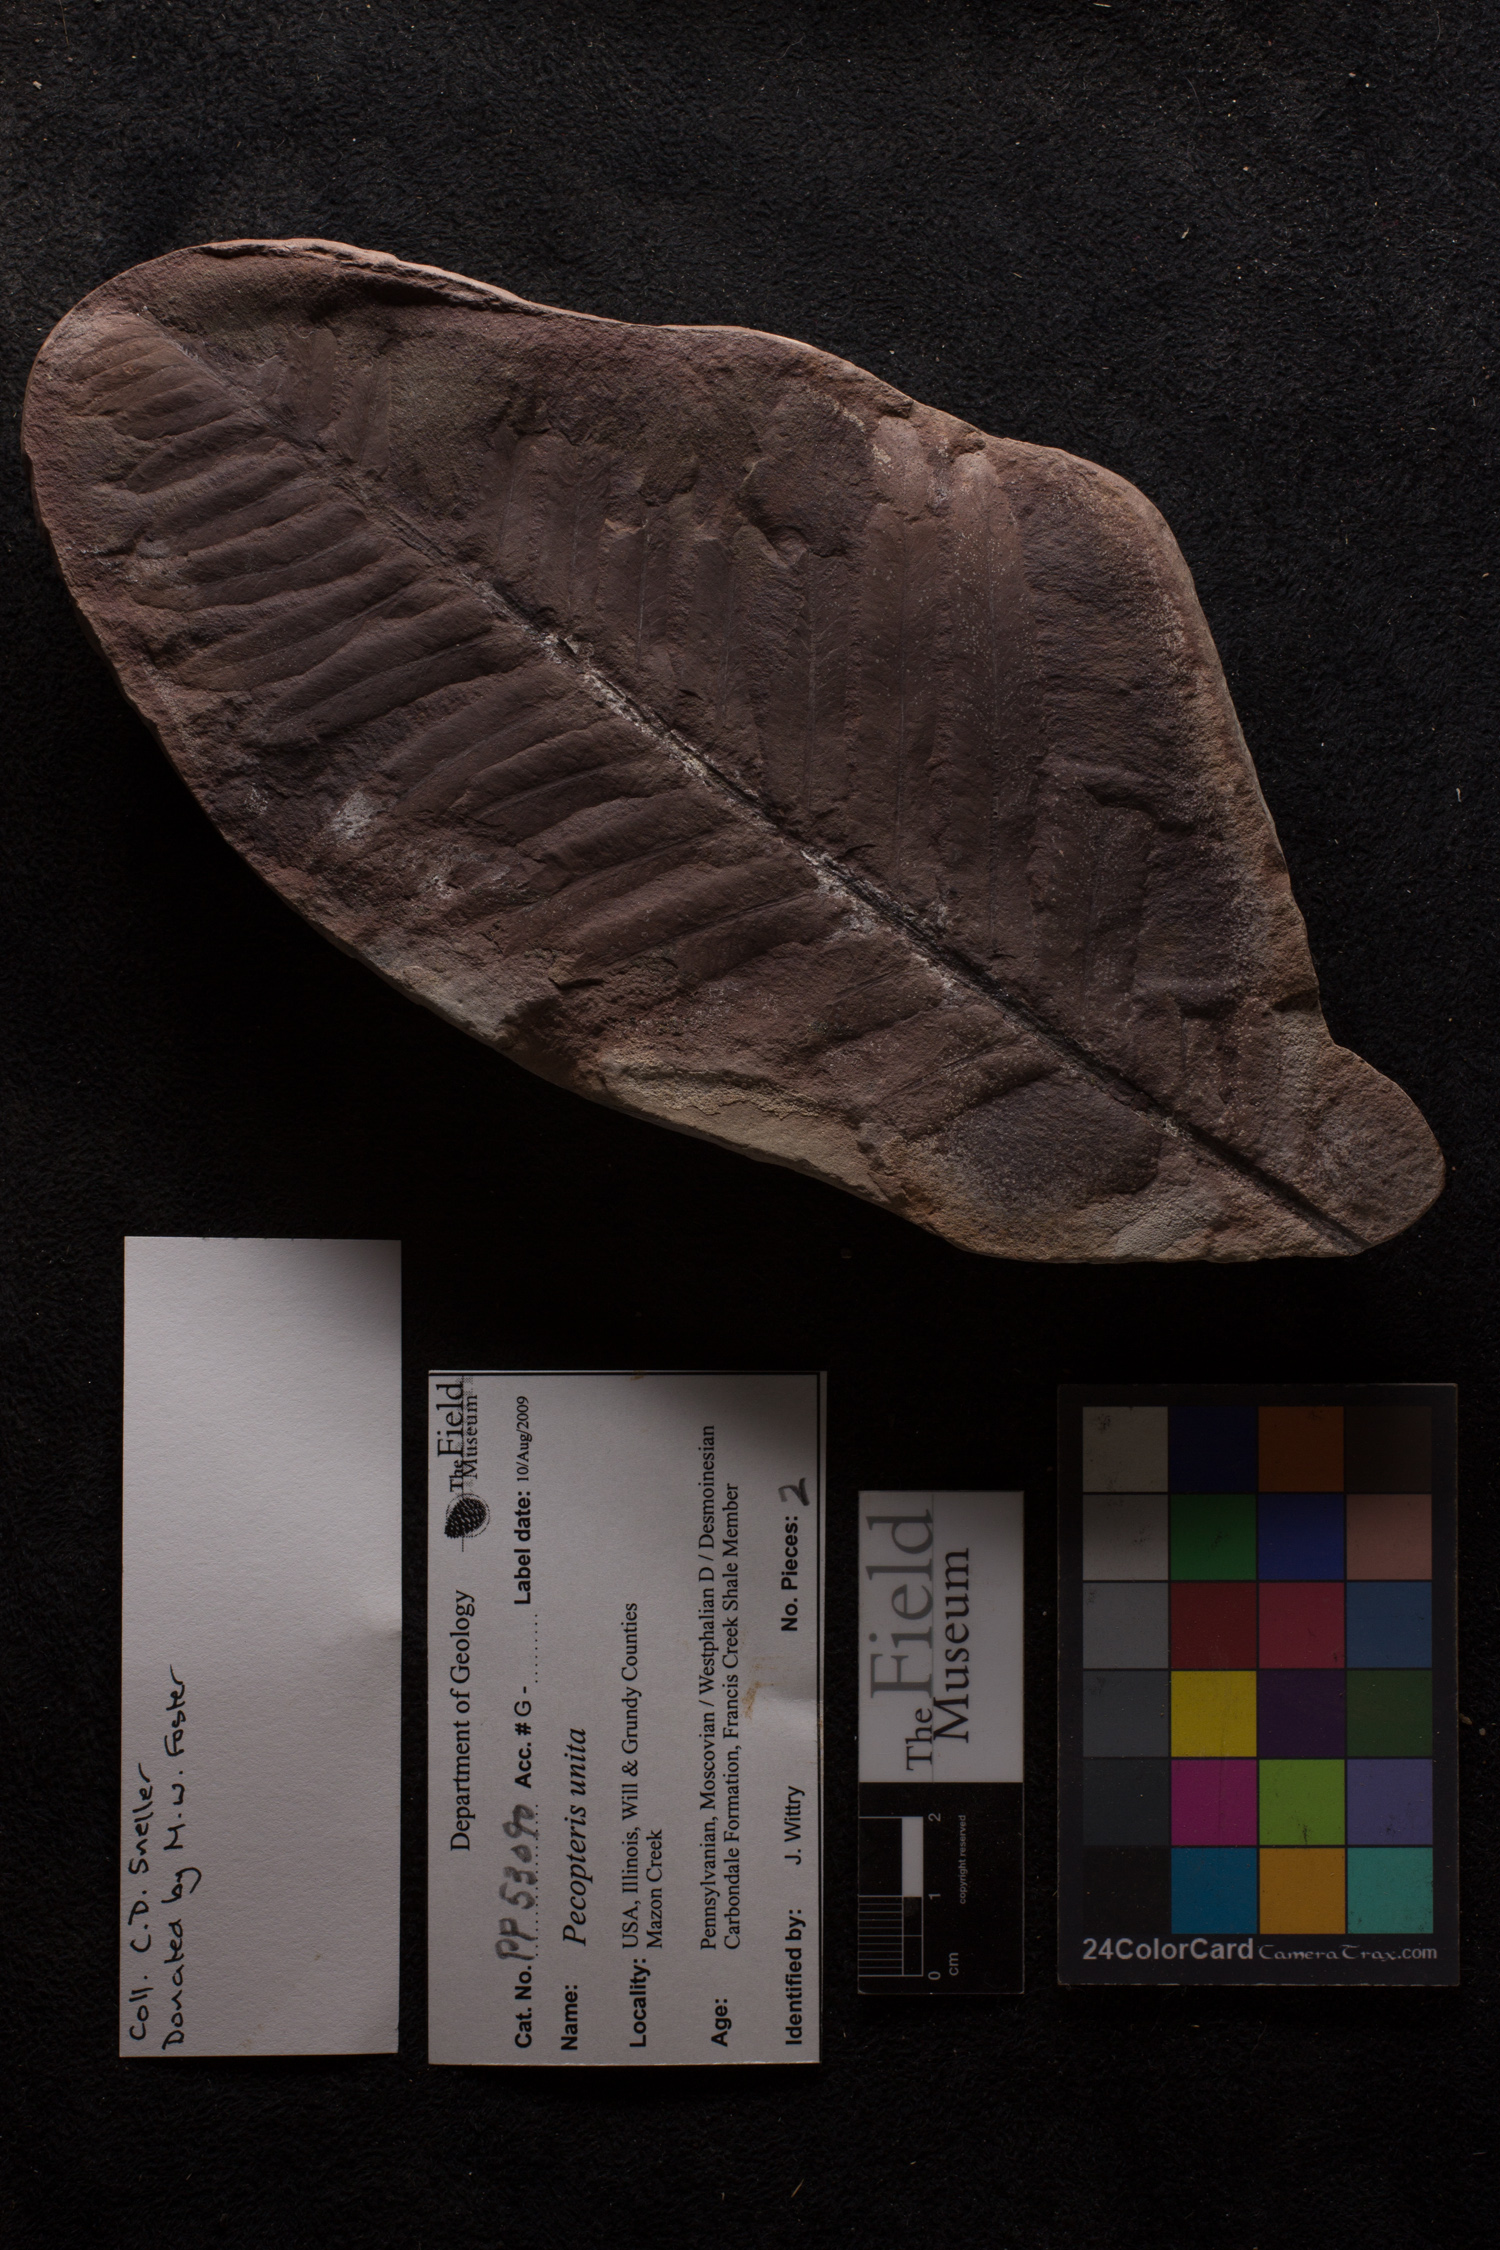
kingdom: Plantae
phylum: Tracheophyta
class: Polypodiopsida
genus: Diplazites
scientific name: Diplazites
